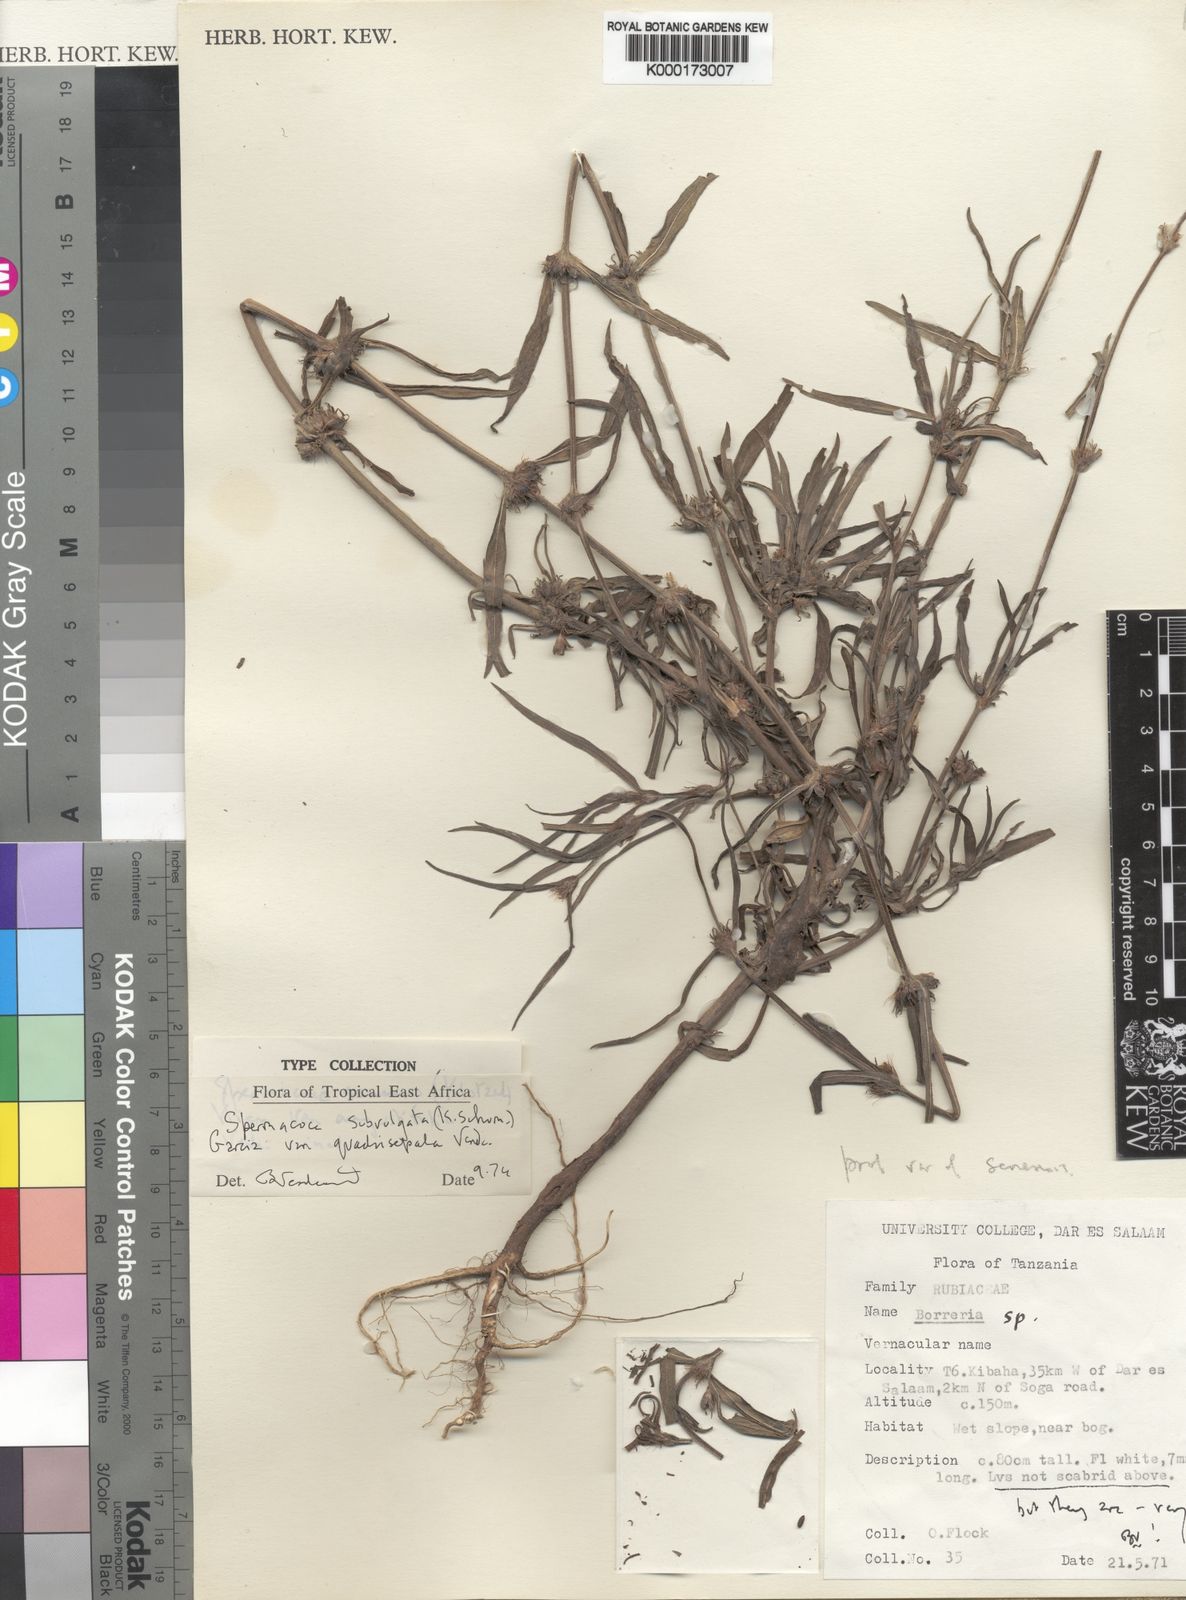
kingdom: Plantae
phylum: Tracheophyta
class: Magnoliopsida
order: Gentianales
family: Rubiaceae
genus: Spermacoce
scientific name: Spermacoce subvulgata
